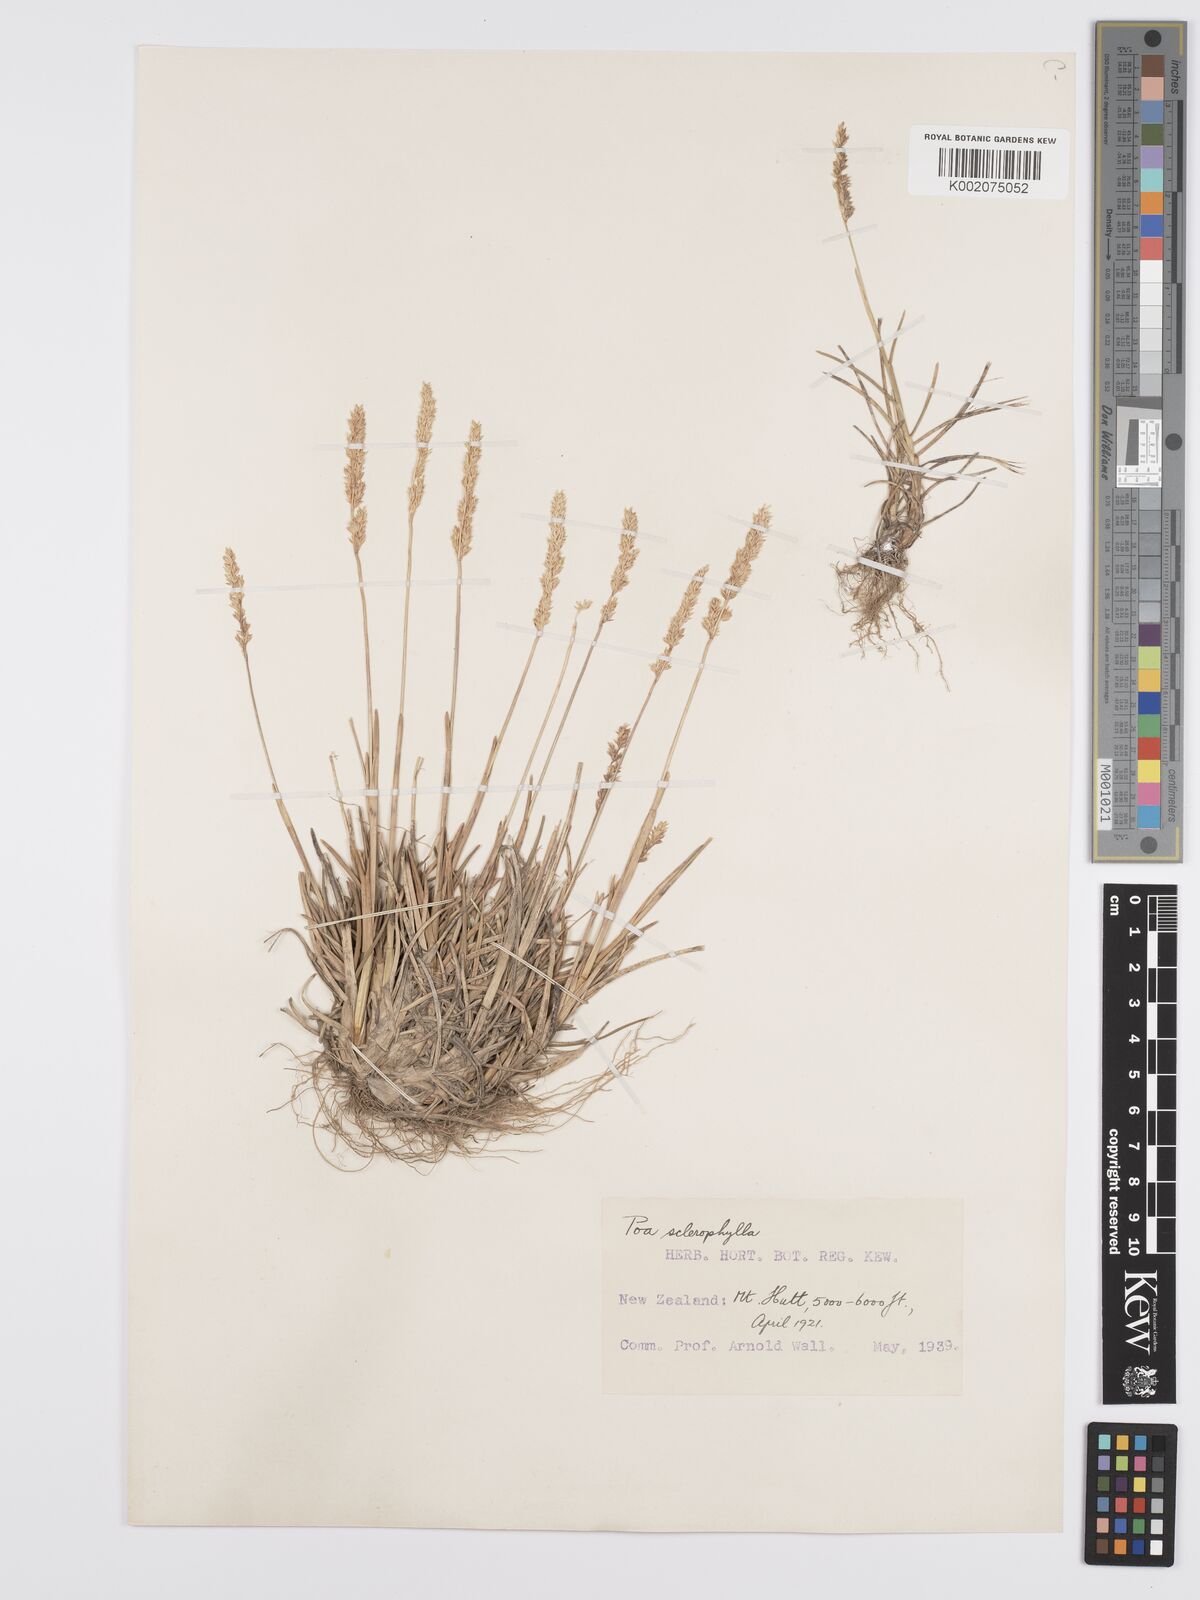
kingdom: Plantae
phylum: Tracheophyta
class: Liliopsida
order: Poales
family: Poaceae
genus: Poa
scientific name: Poa buchananii
